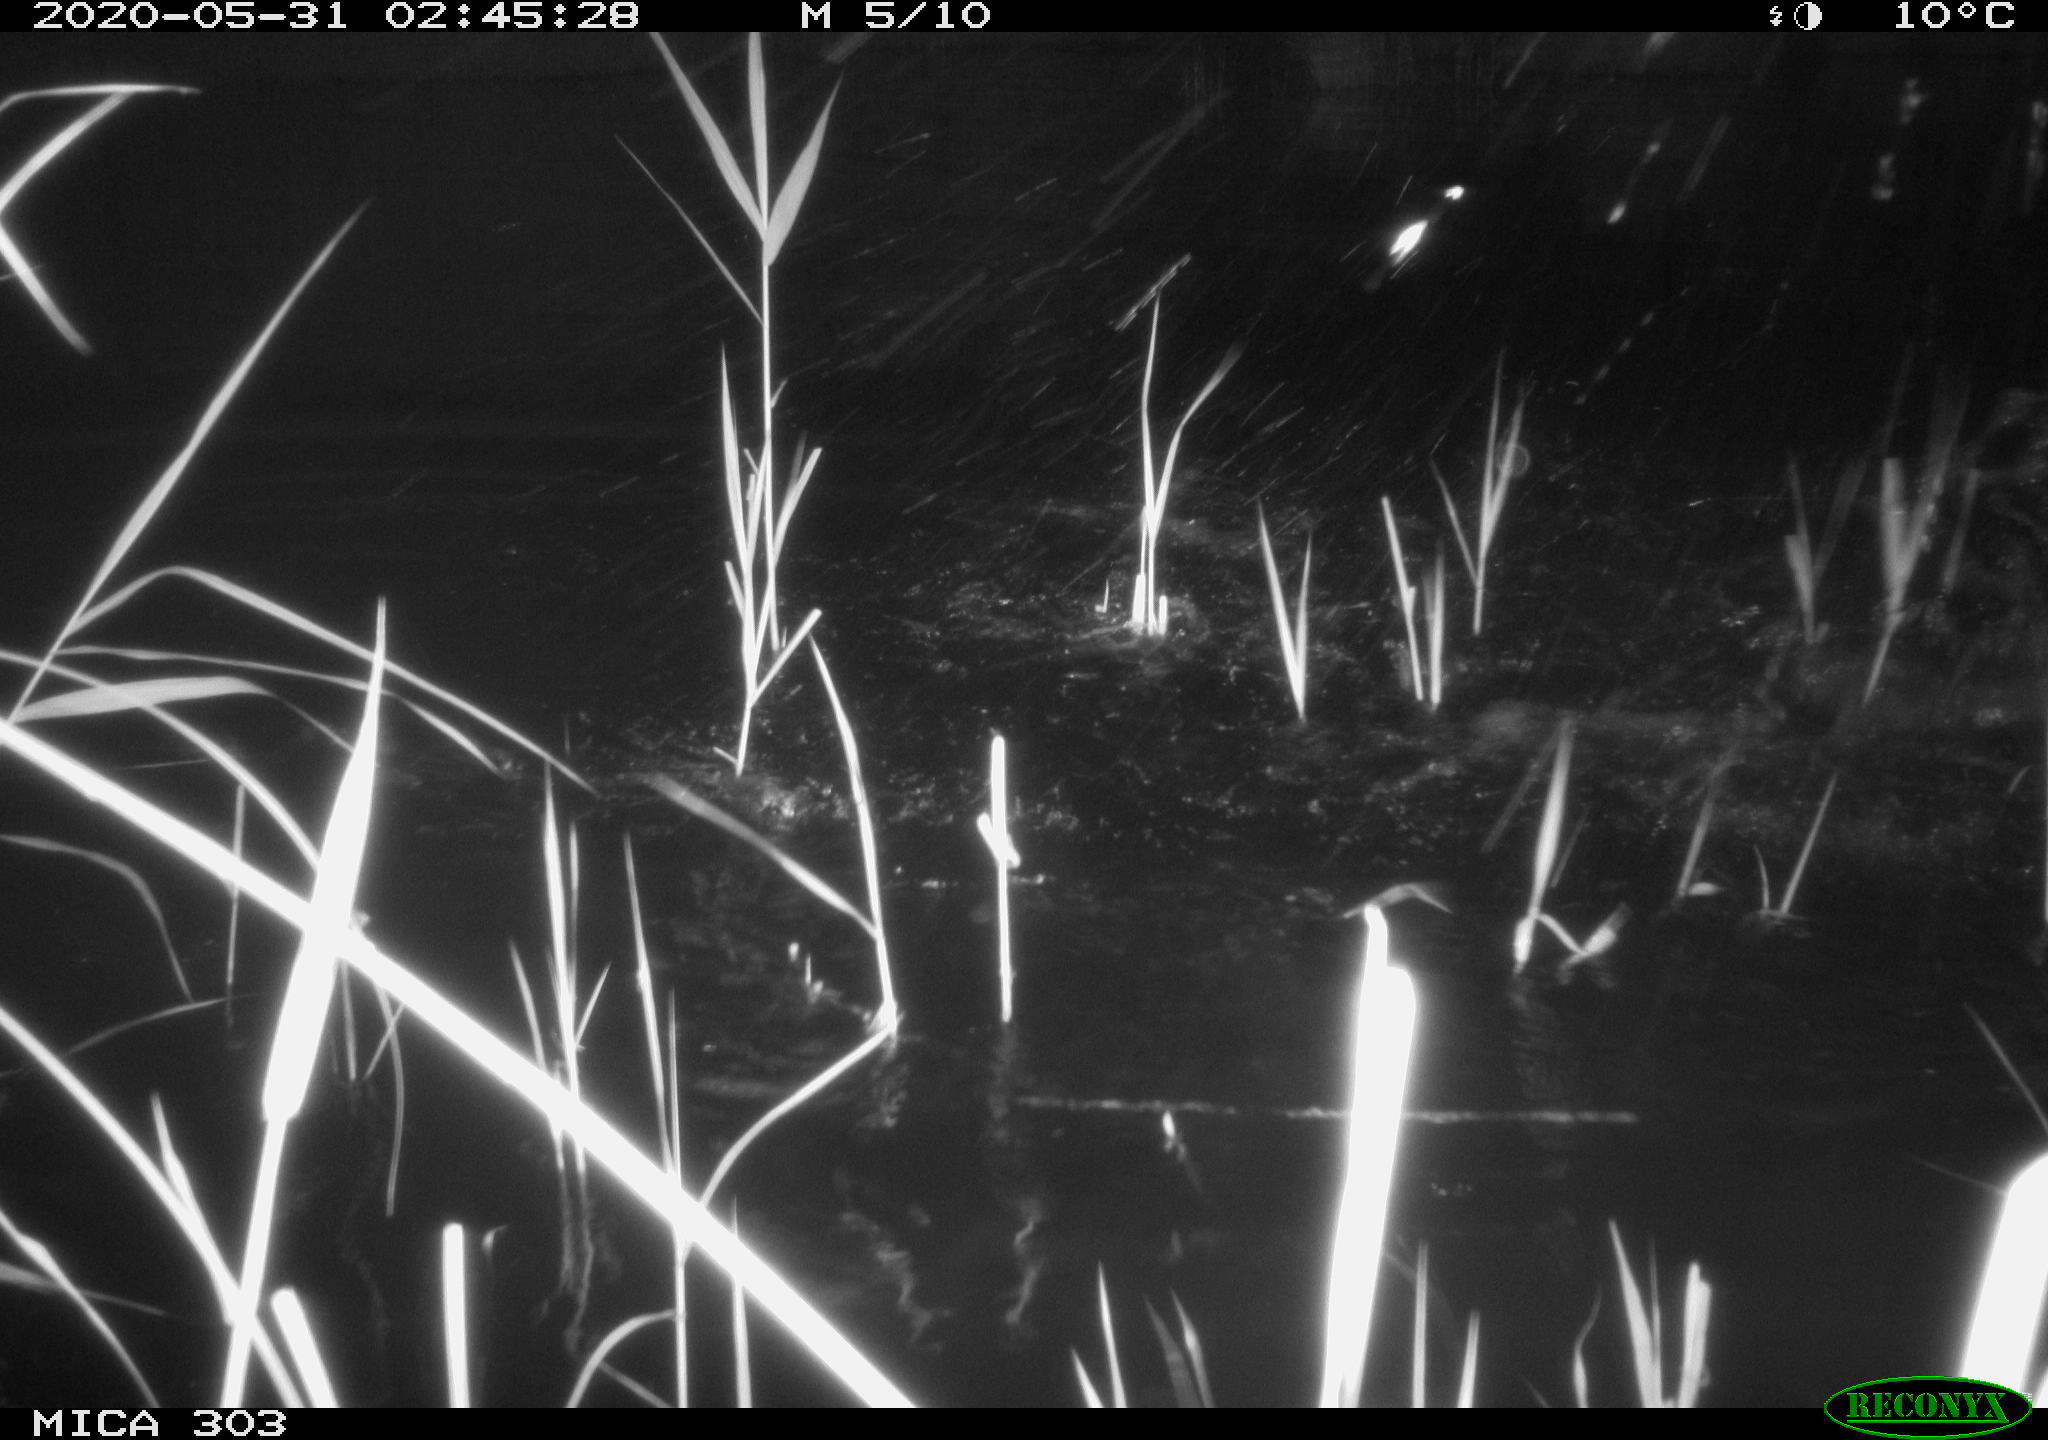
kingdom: Animalia
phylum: Chordata
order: Cypriniformes
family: Cyprinidae
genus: Cyprinus
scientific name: Cyprinus carpio
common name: Common carp
